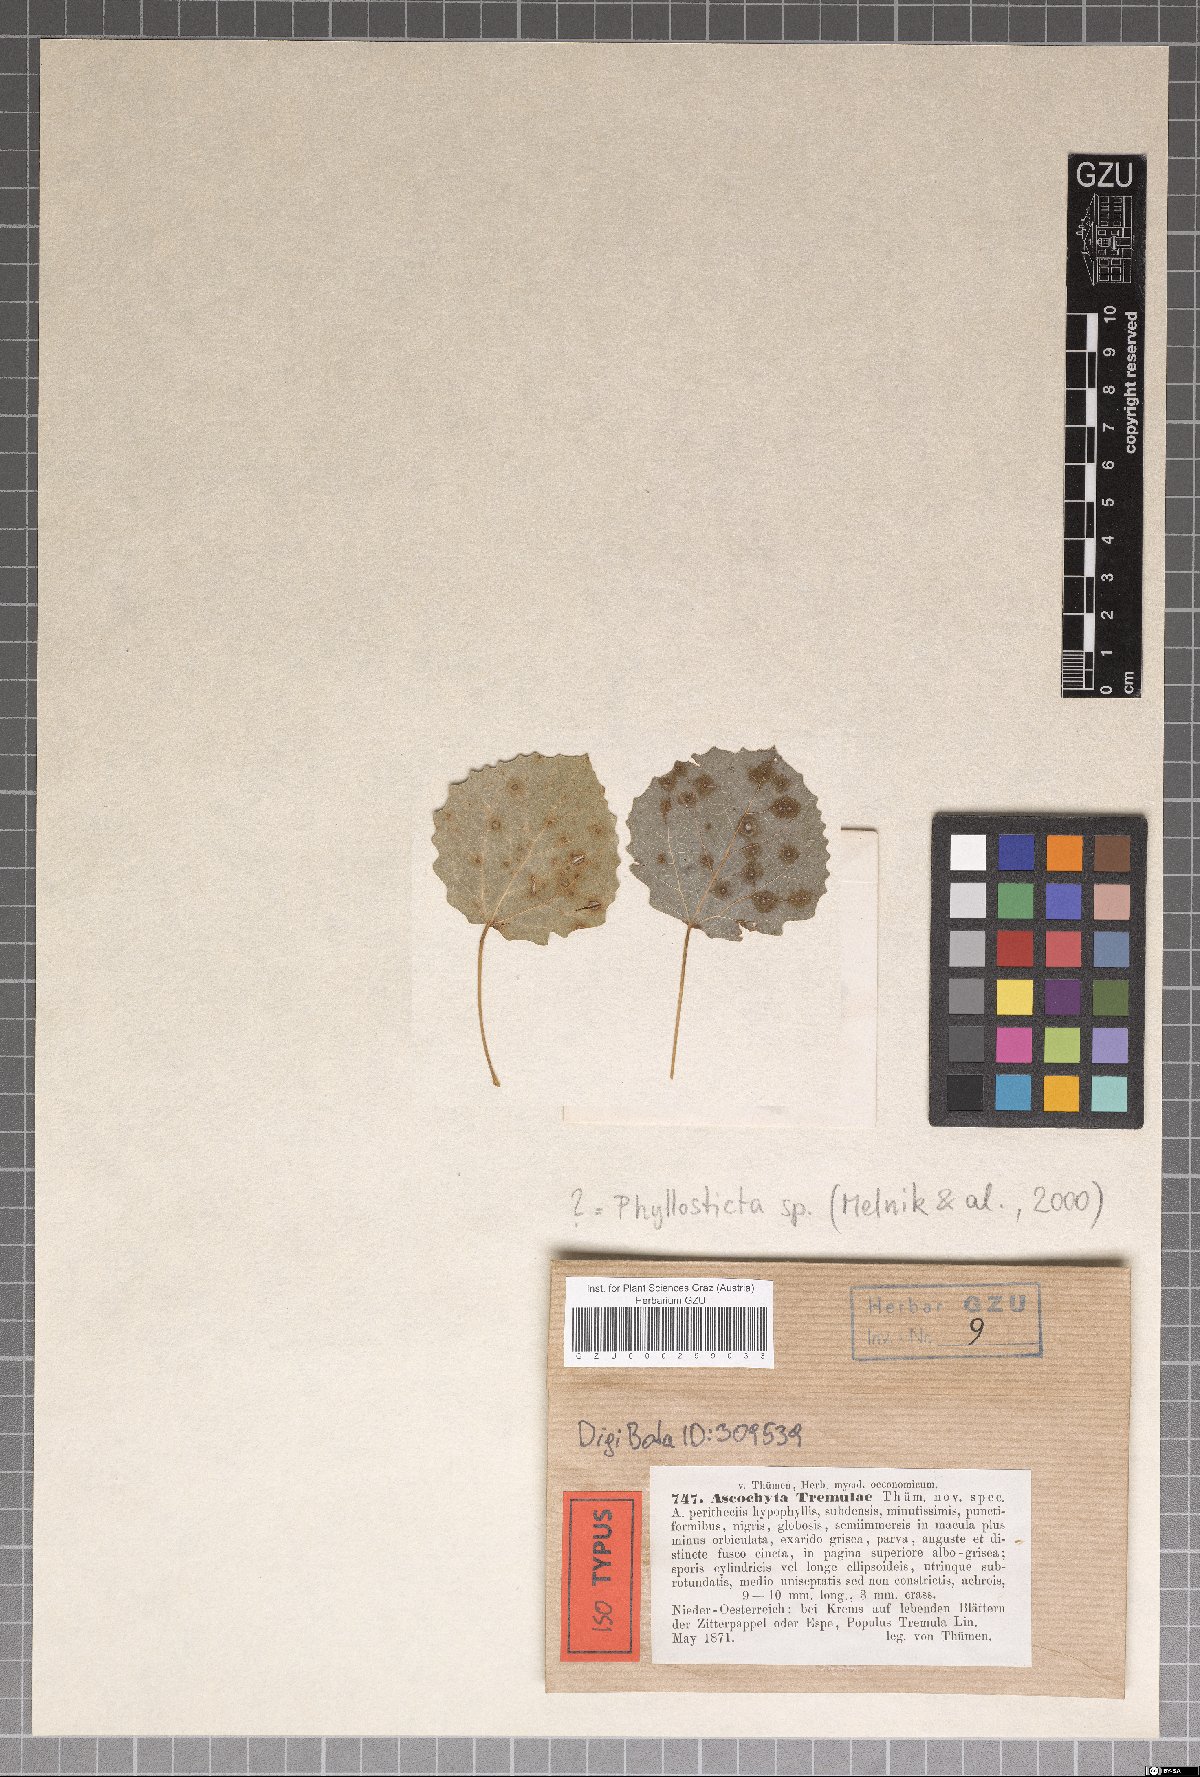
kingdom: Fungi
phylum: Ascomycota
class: Dothideomycetes
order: Pleosporales
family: Didymellaceae
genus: Ascochyta
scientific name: Ascochyta
